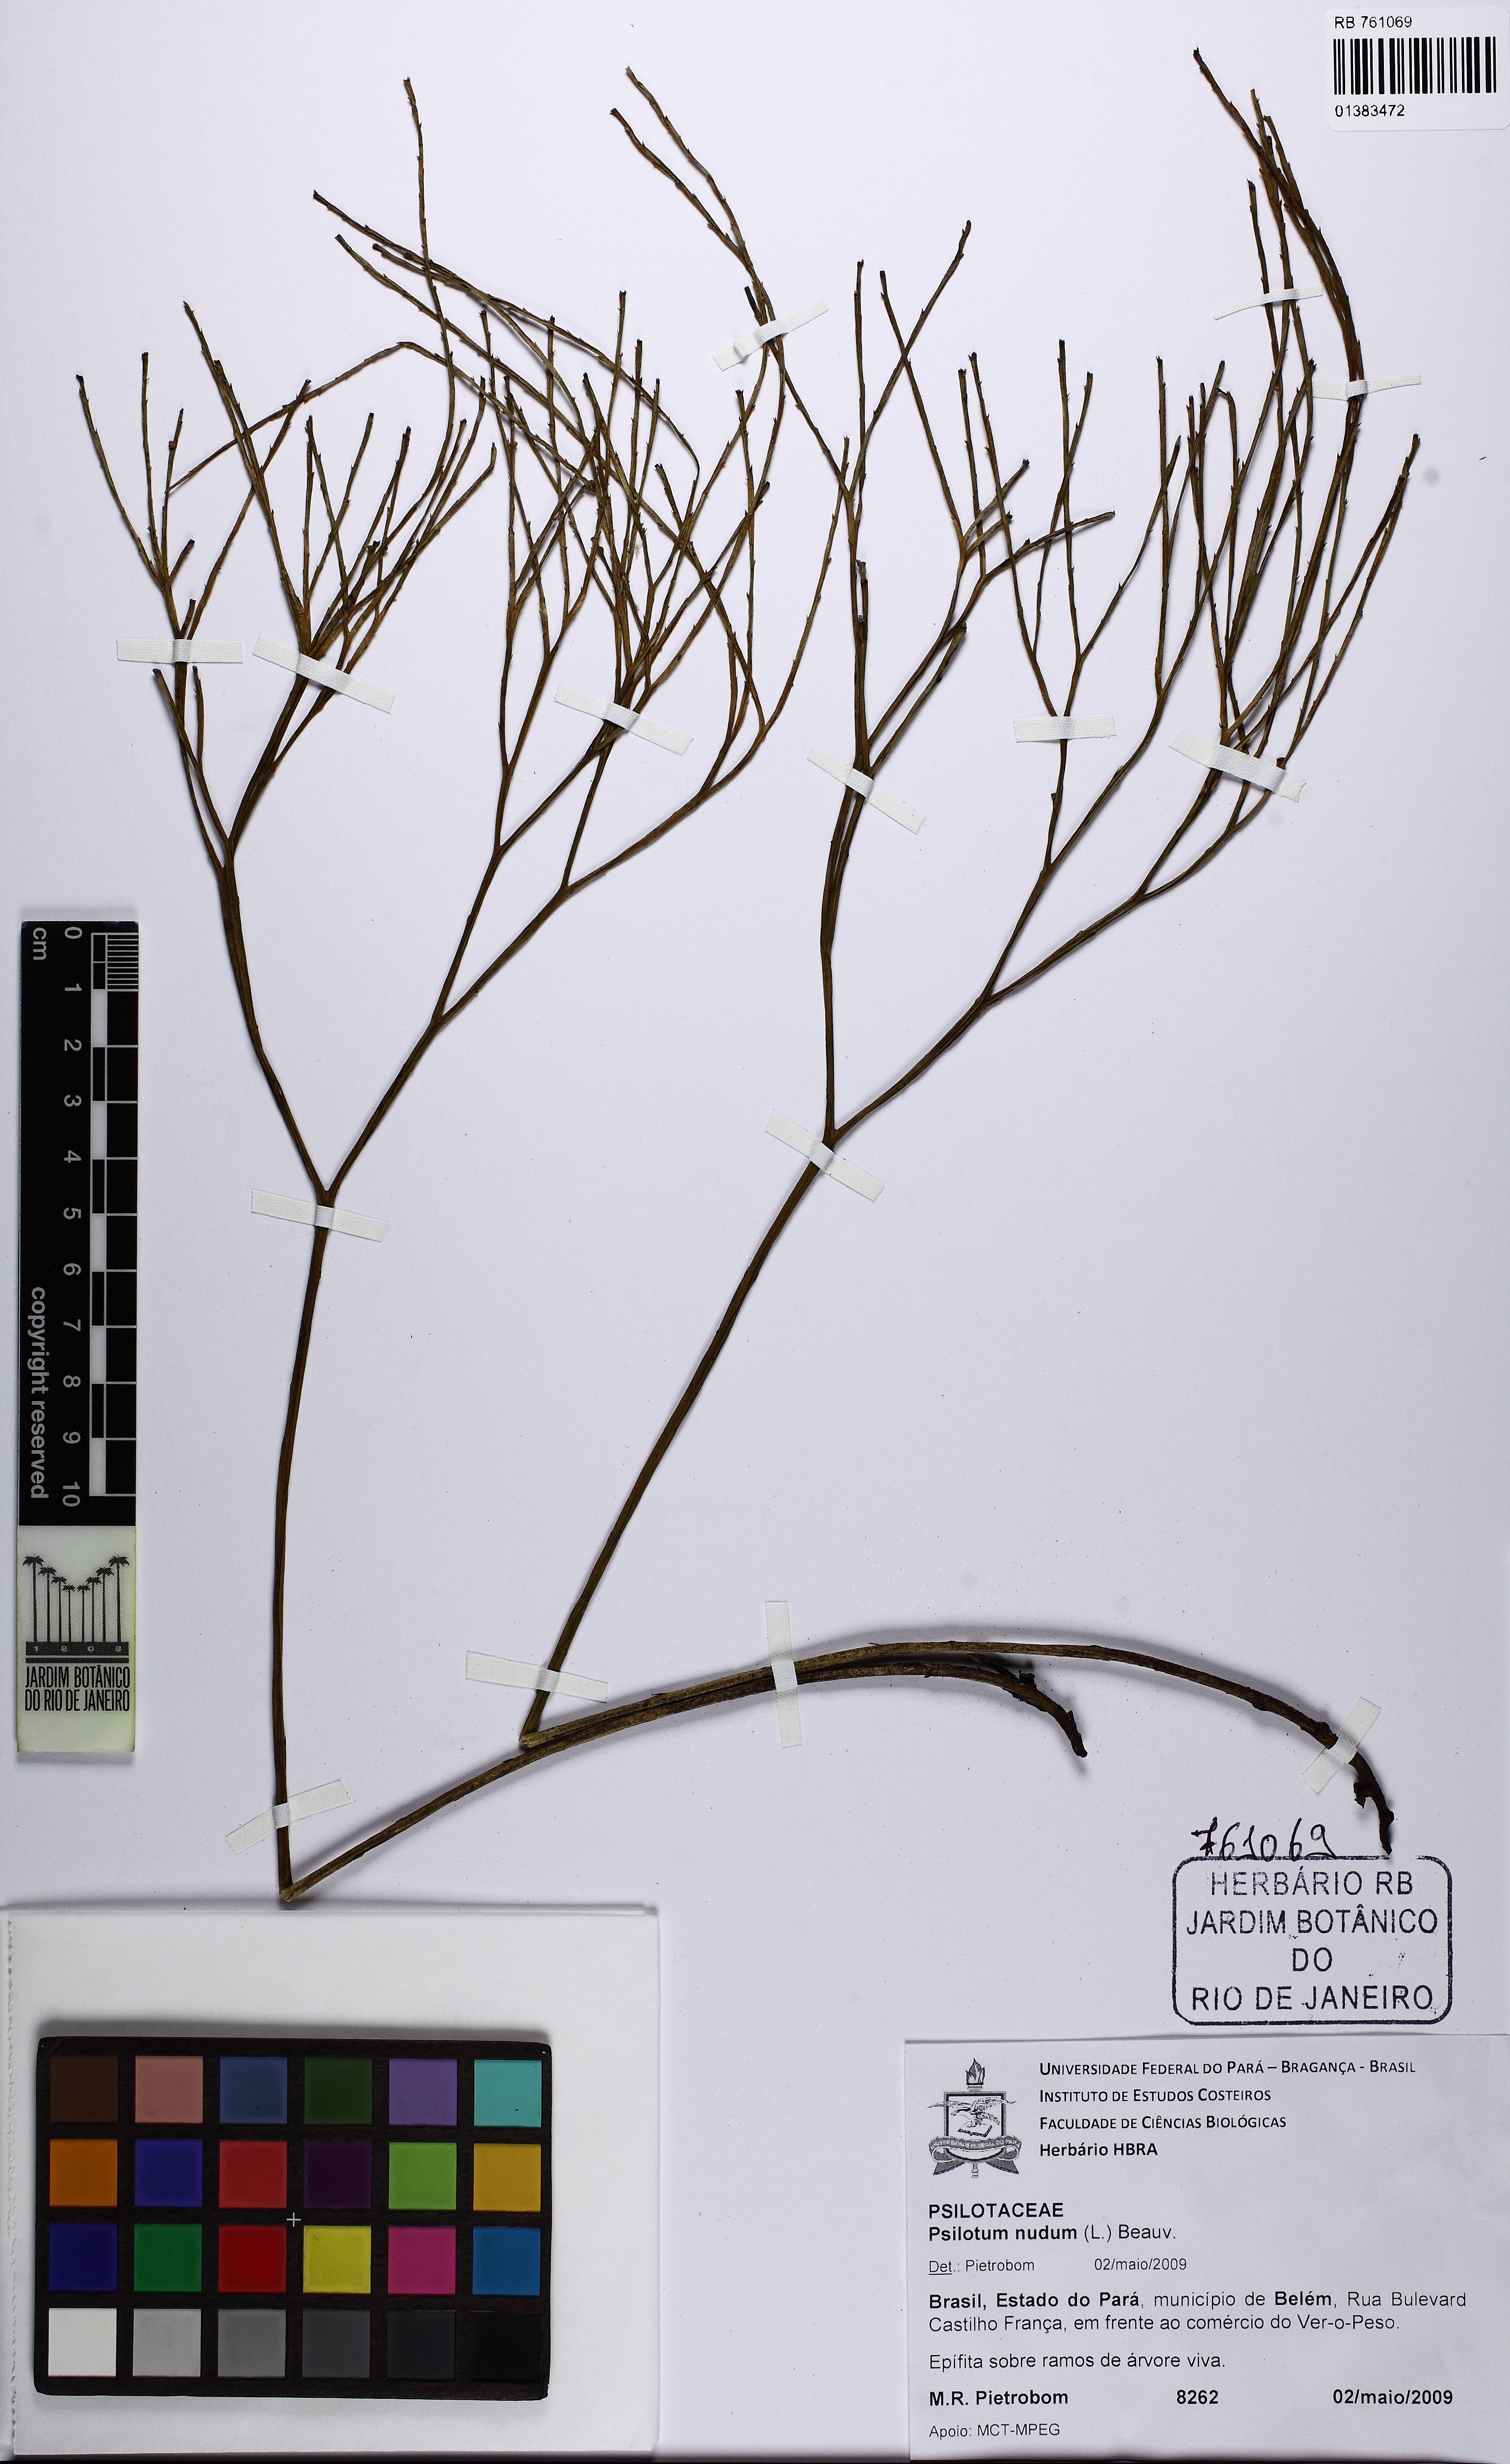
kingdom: Plantae
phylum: Tracheophyta
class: Polypodiopsida
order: Psilotales
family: Psilotaceae
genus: Psilotum
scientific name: Psilotum nudum
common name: Skeleton fork fern
